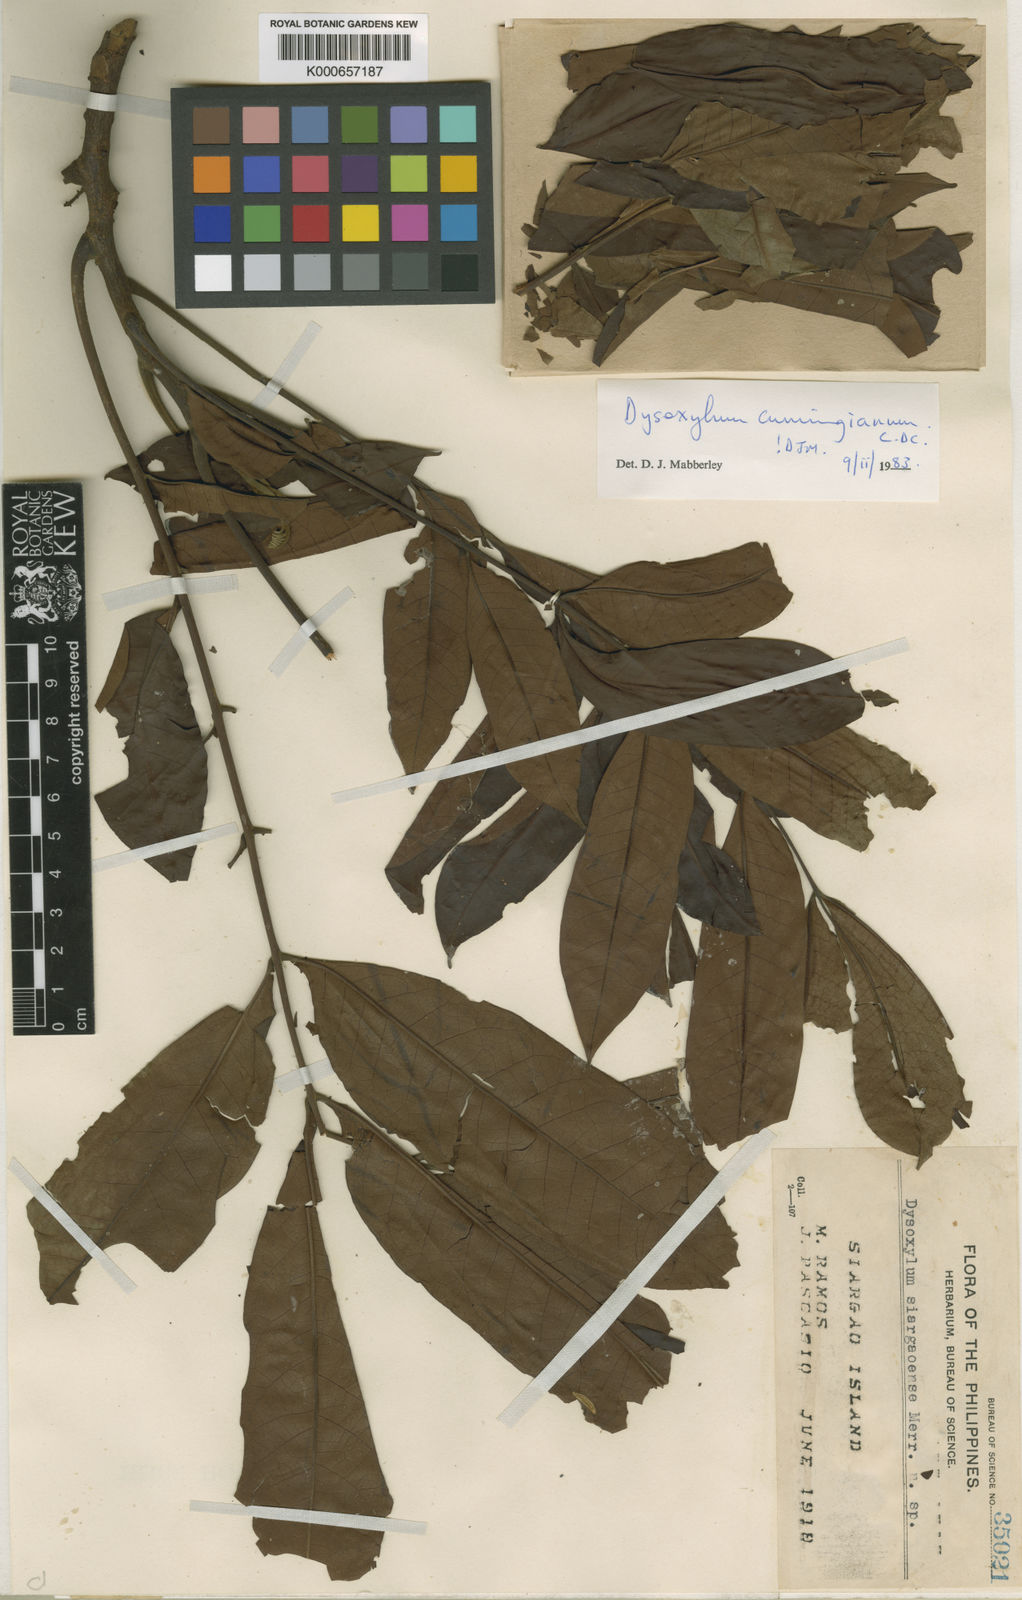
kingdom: Plantae
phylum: Tracheophyta
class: Magnoliopsida
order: Sapindales
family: Meliaceae
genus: Epicharis
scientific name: Epicharis cumingiana
